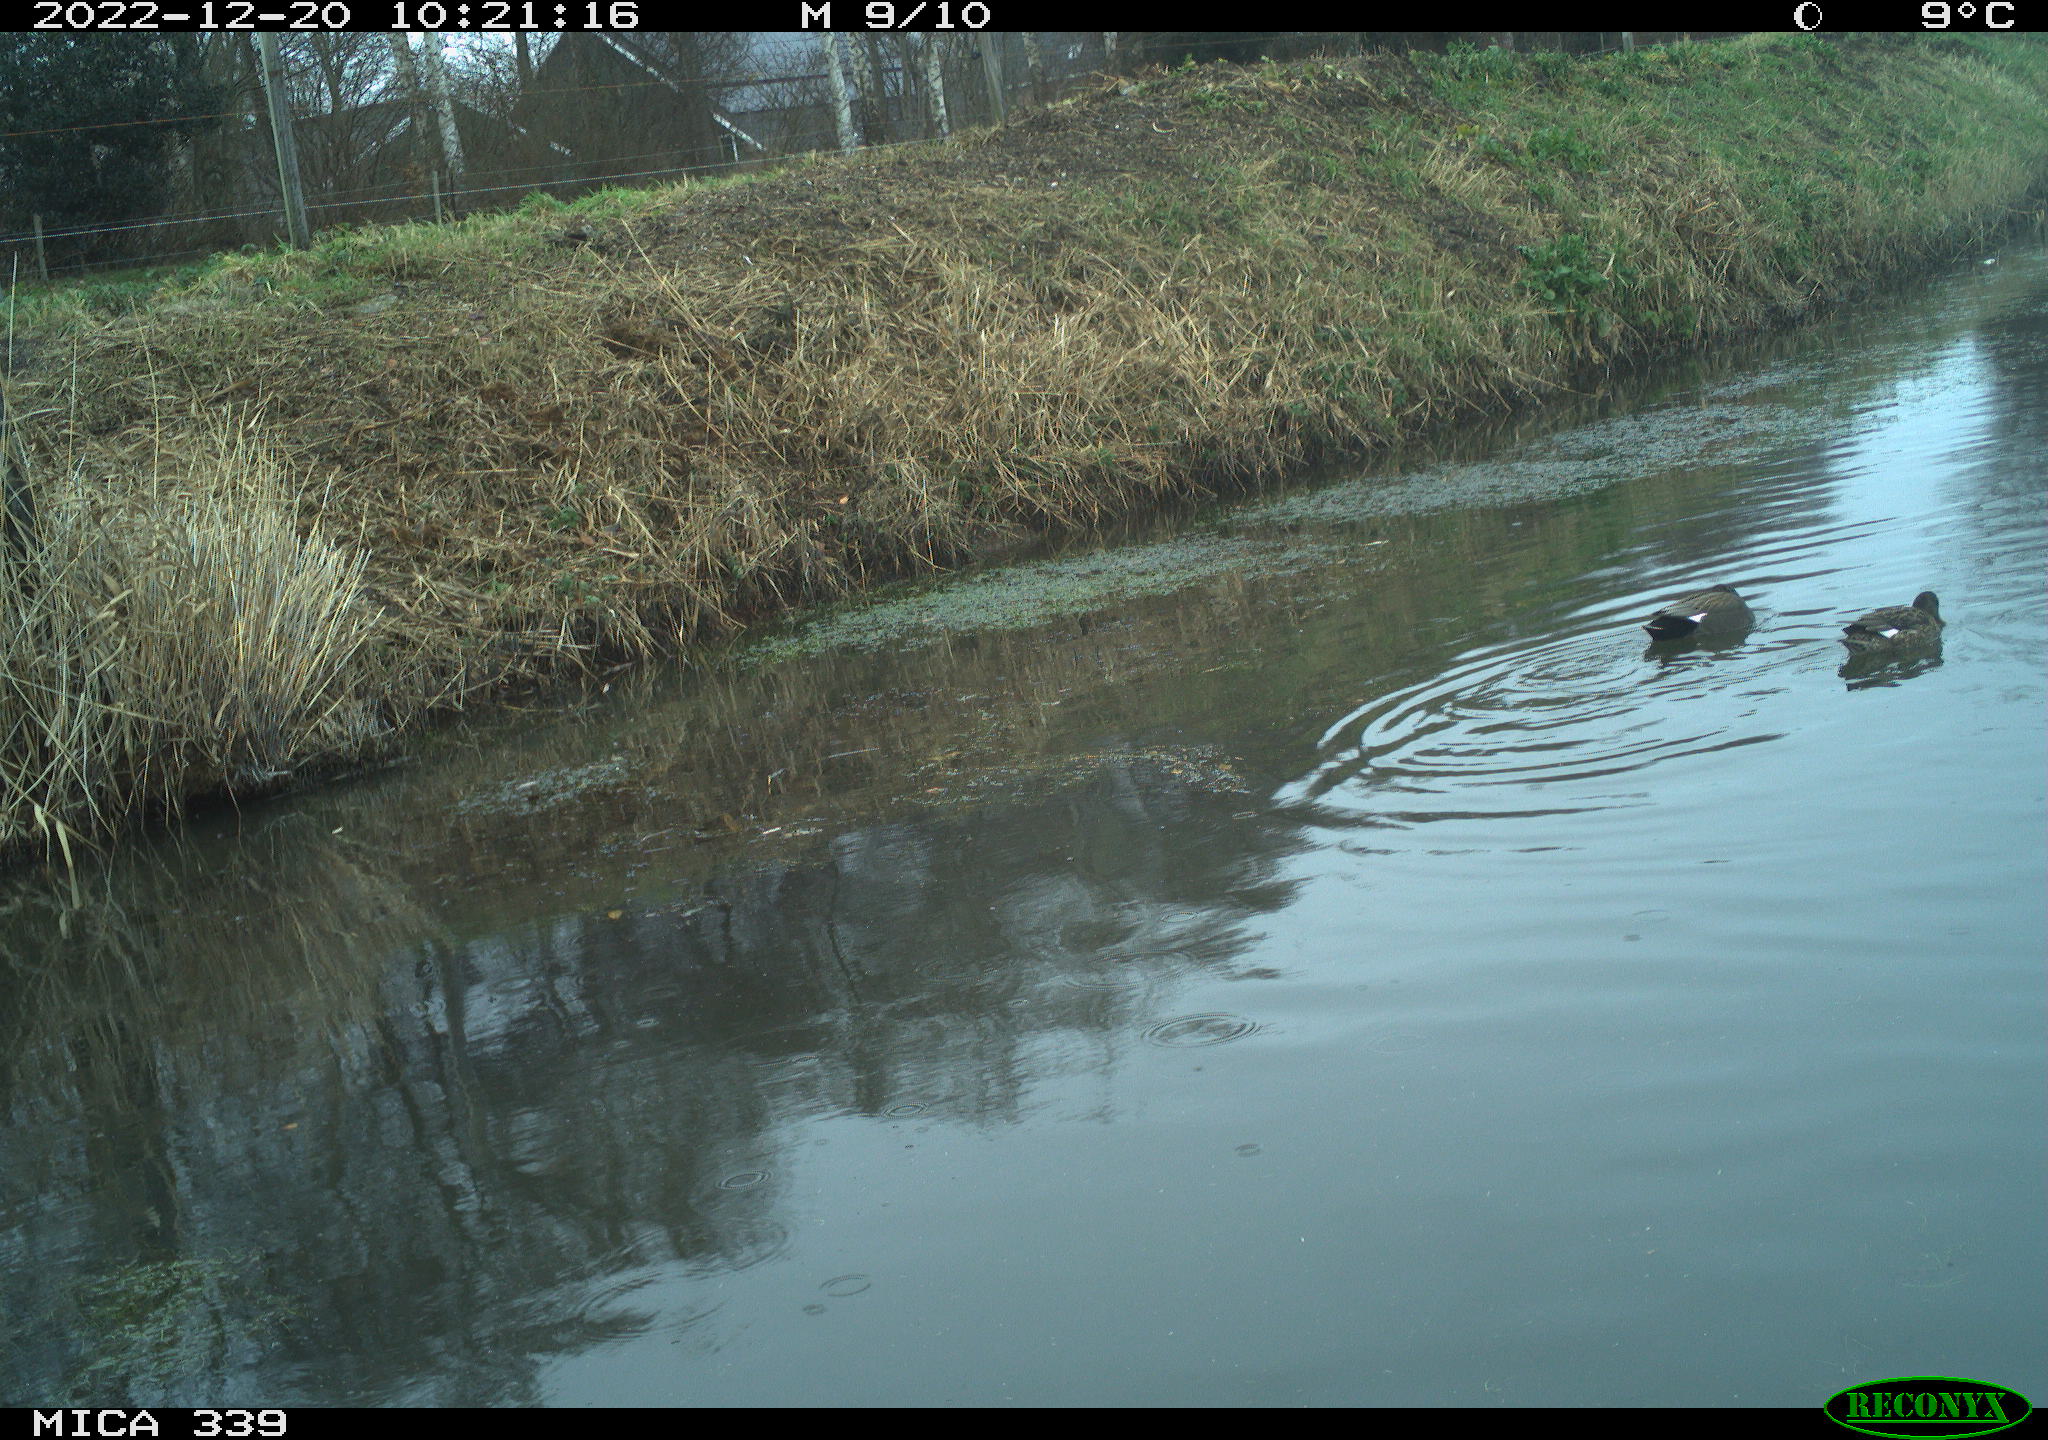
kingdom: Animalia
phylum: Chordata
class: Aves
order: Anseriformes
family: Anatidae
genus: Anas
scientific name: Anas
